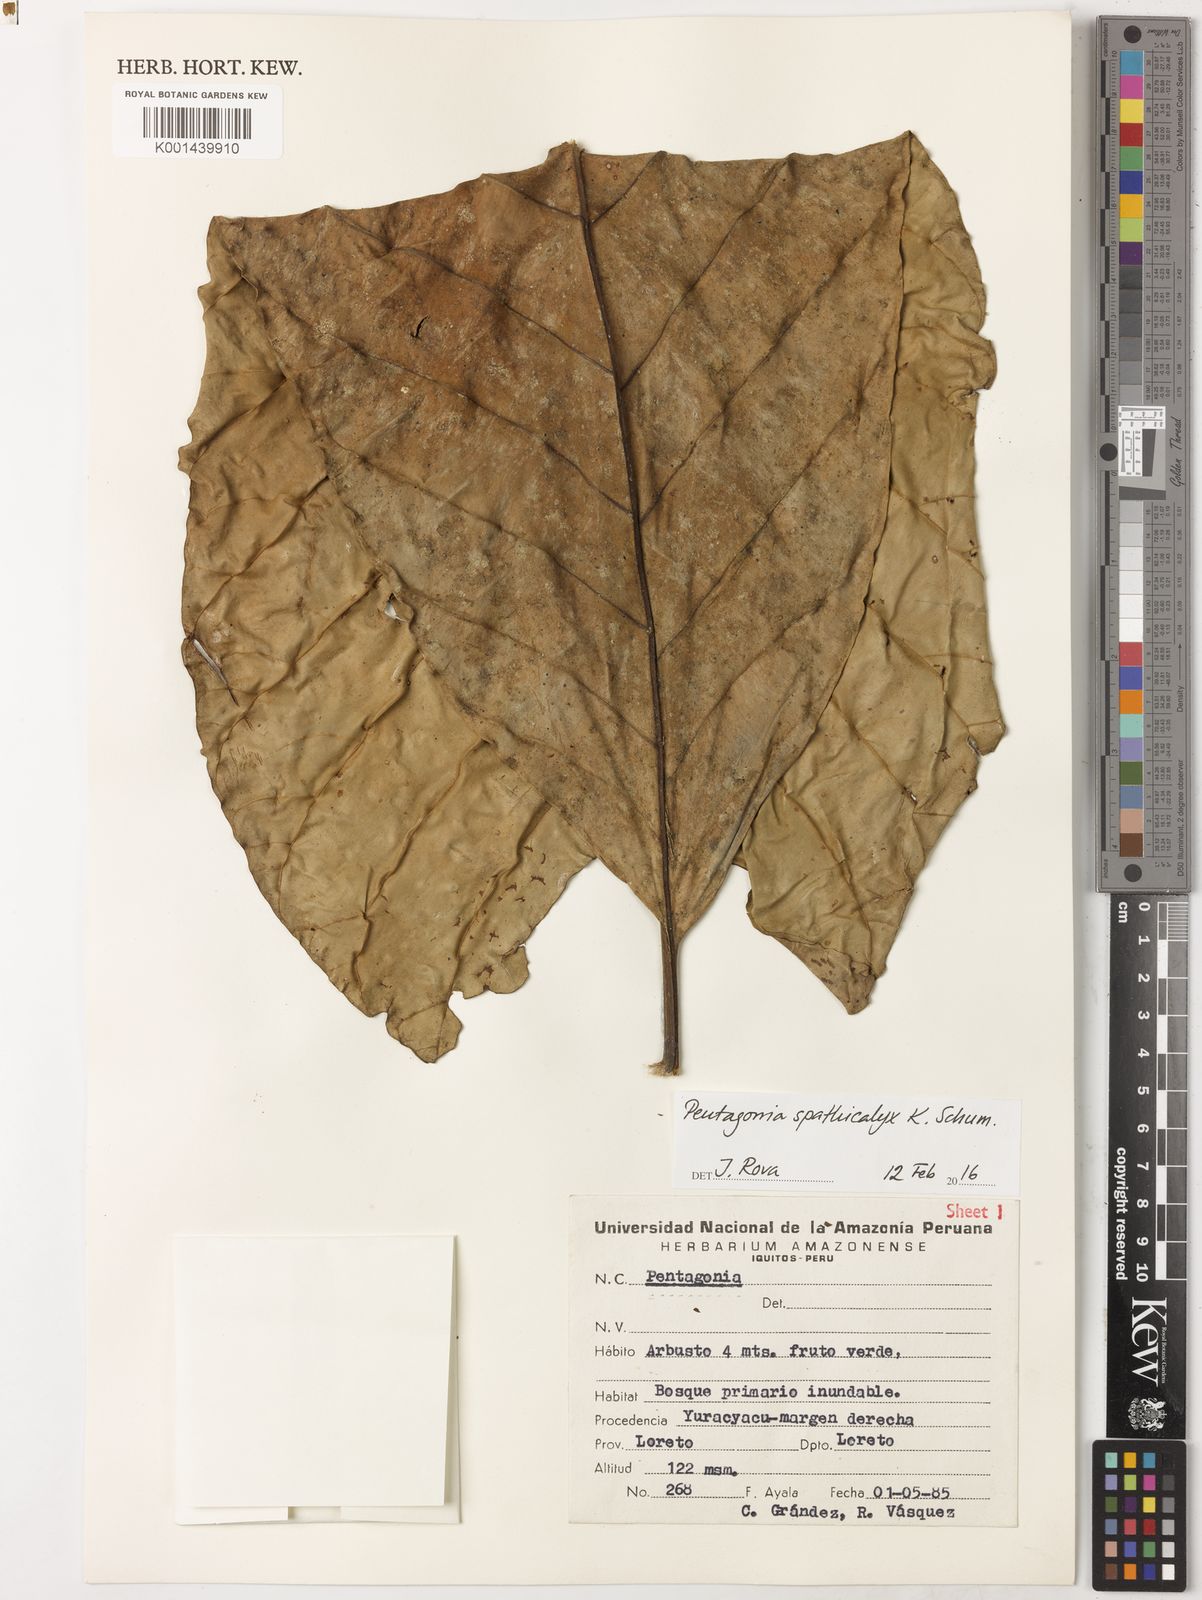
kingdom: Plantae
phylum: Tracheophyta
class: Magnoliopsida
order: Gentianales
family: Rubiaceae
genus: Pentagonia
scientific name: Pentagonia spathicalyx
